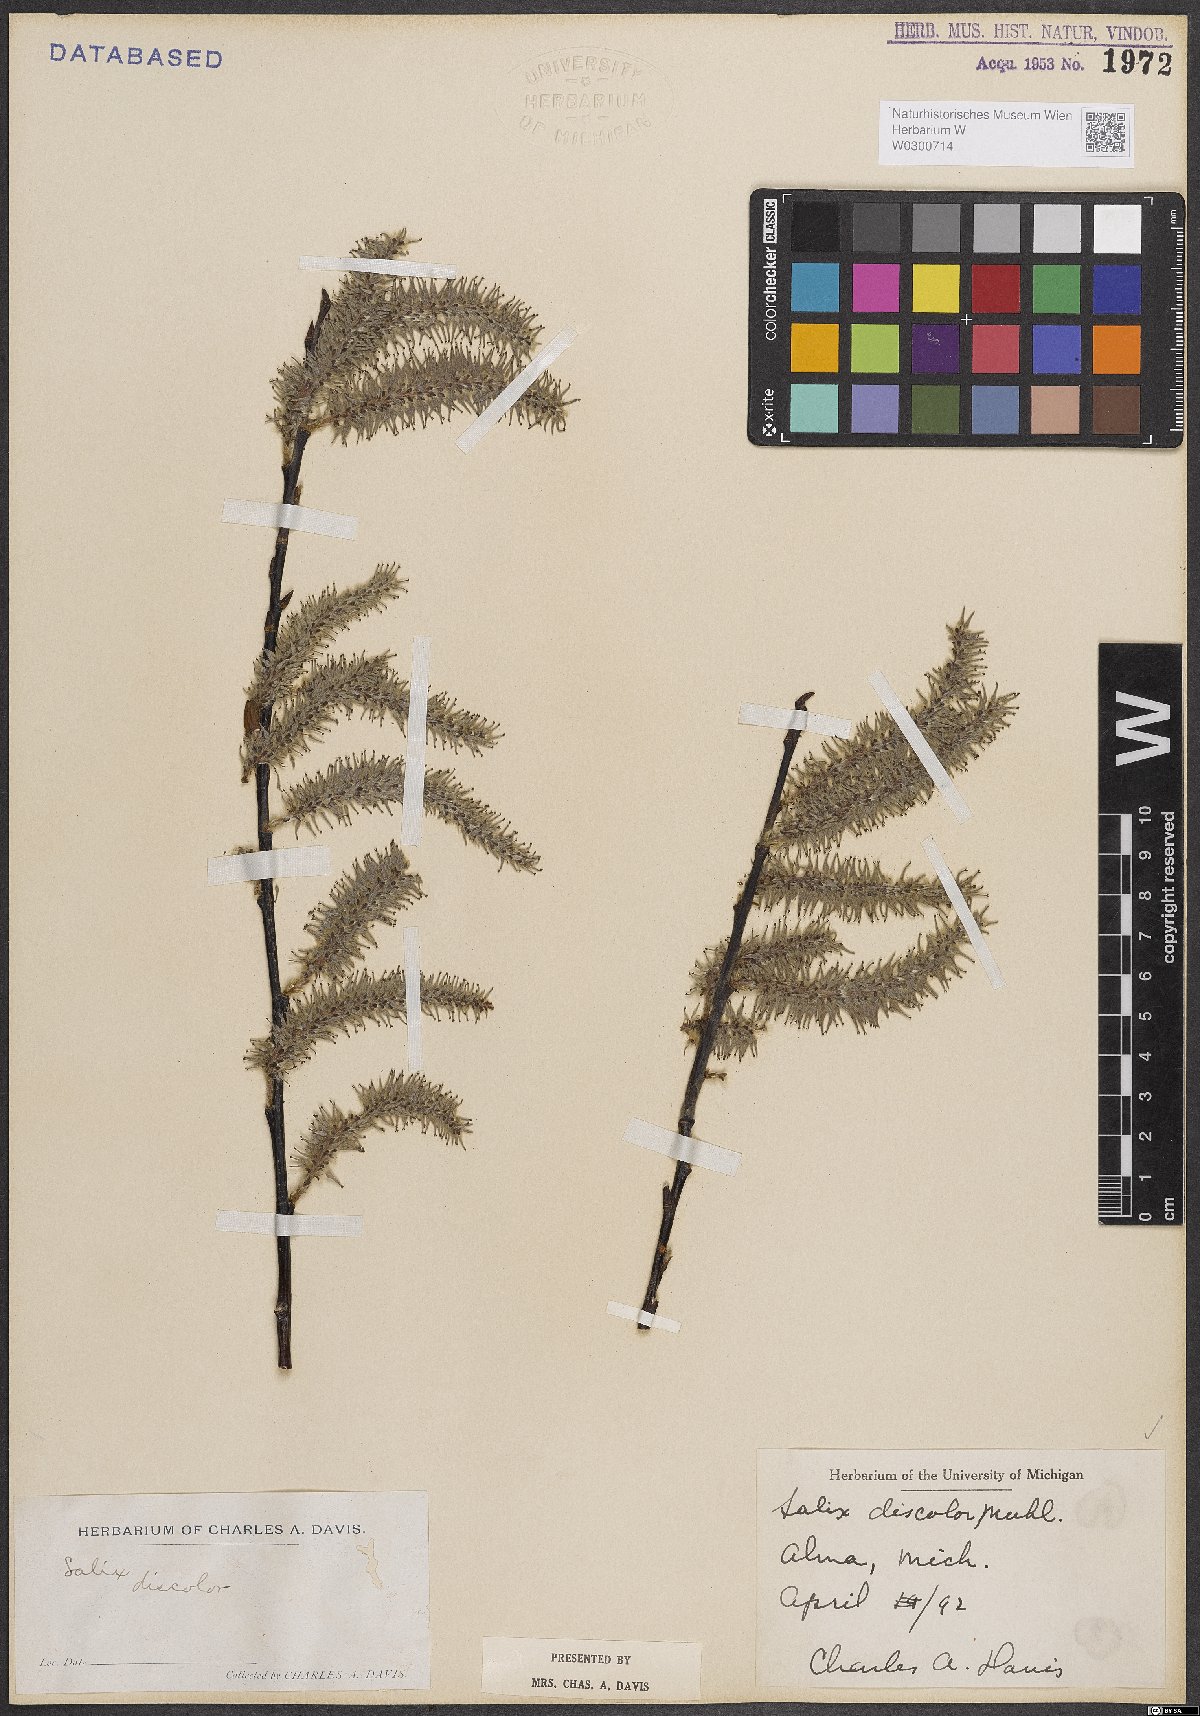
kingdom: Plantae
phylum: Tracheophyta
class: Magnoliopsida
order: Malpighiales
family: Salicaceae
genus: Salix
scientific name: Salix discolor
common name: Glaucous willow
